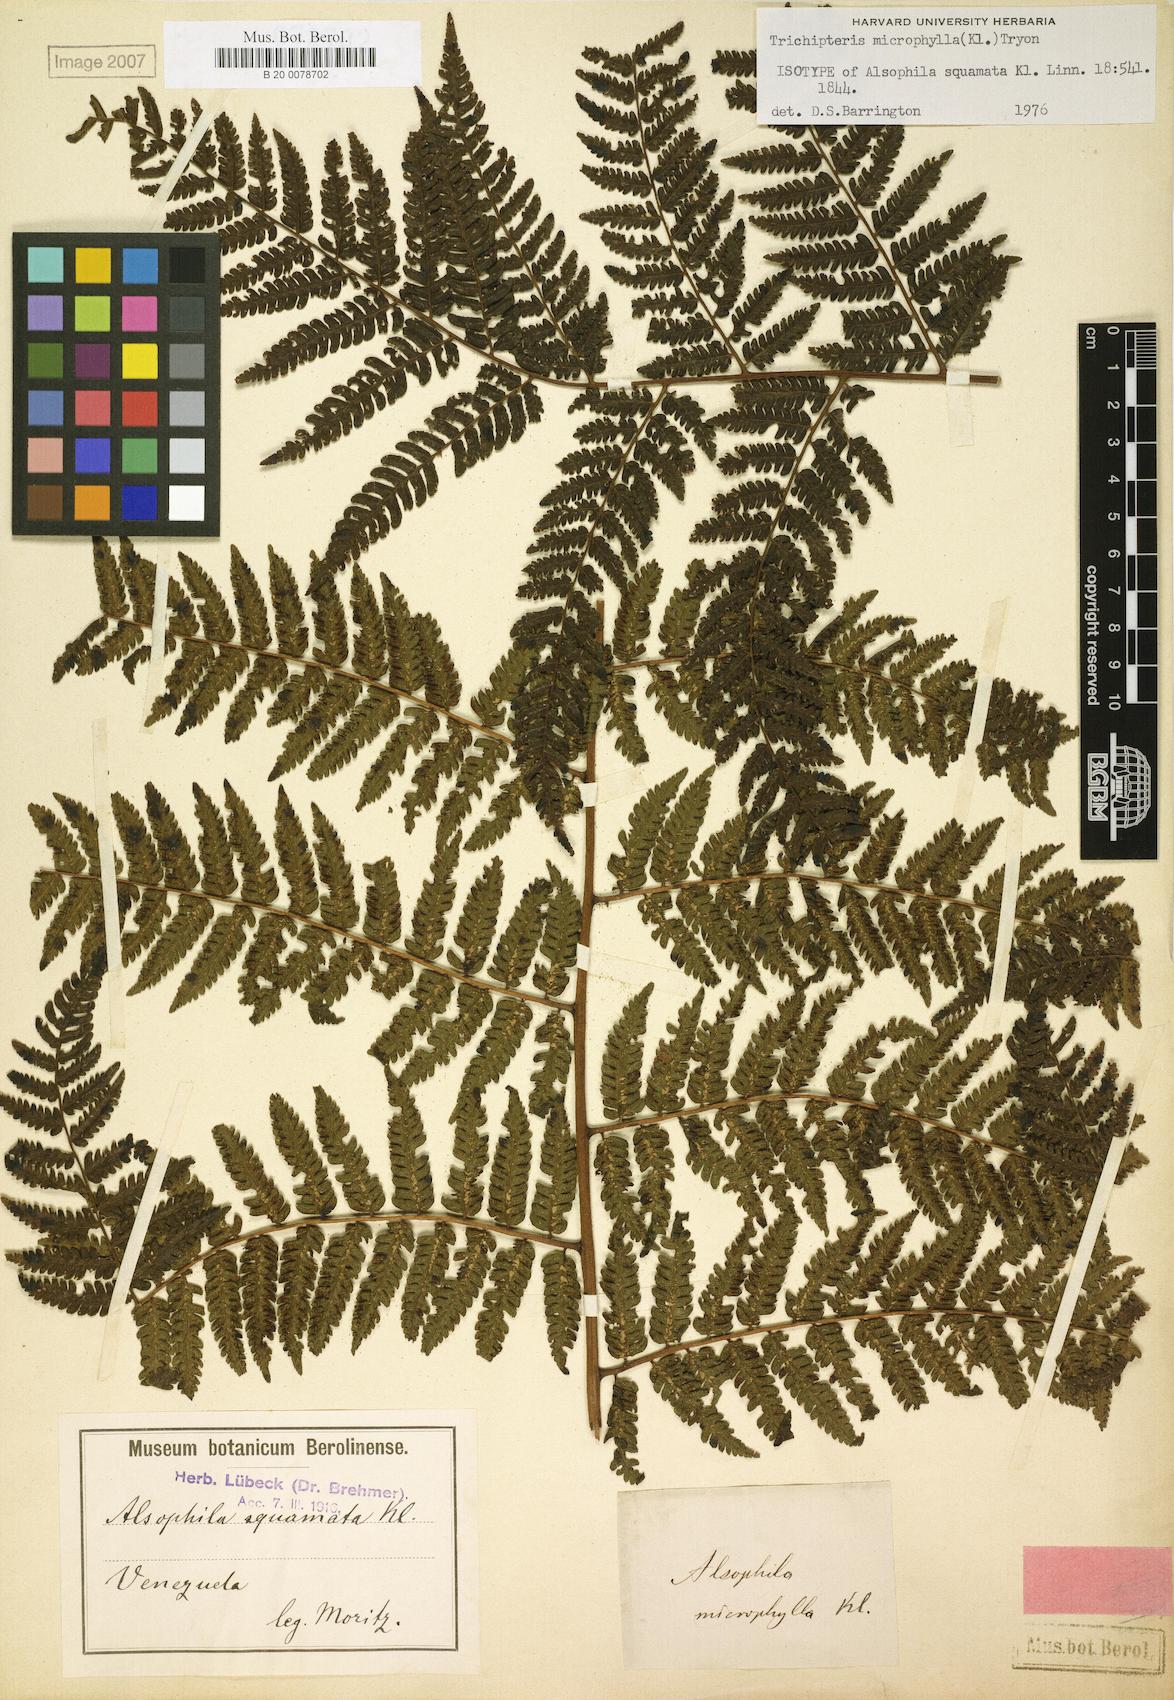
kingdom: Plantae
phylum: Tracheophyta
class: Polypodiopsida
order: Cyatheales
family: Cyatheaceae
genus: Cyathea
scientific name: Cyathea squamata
